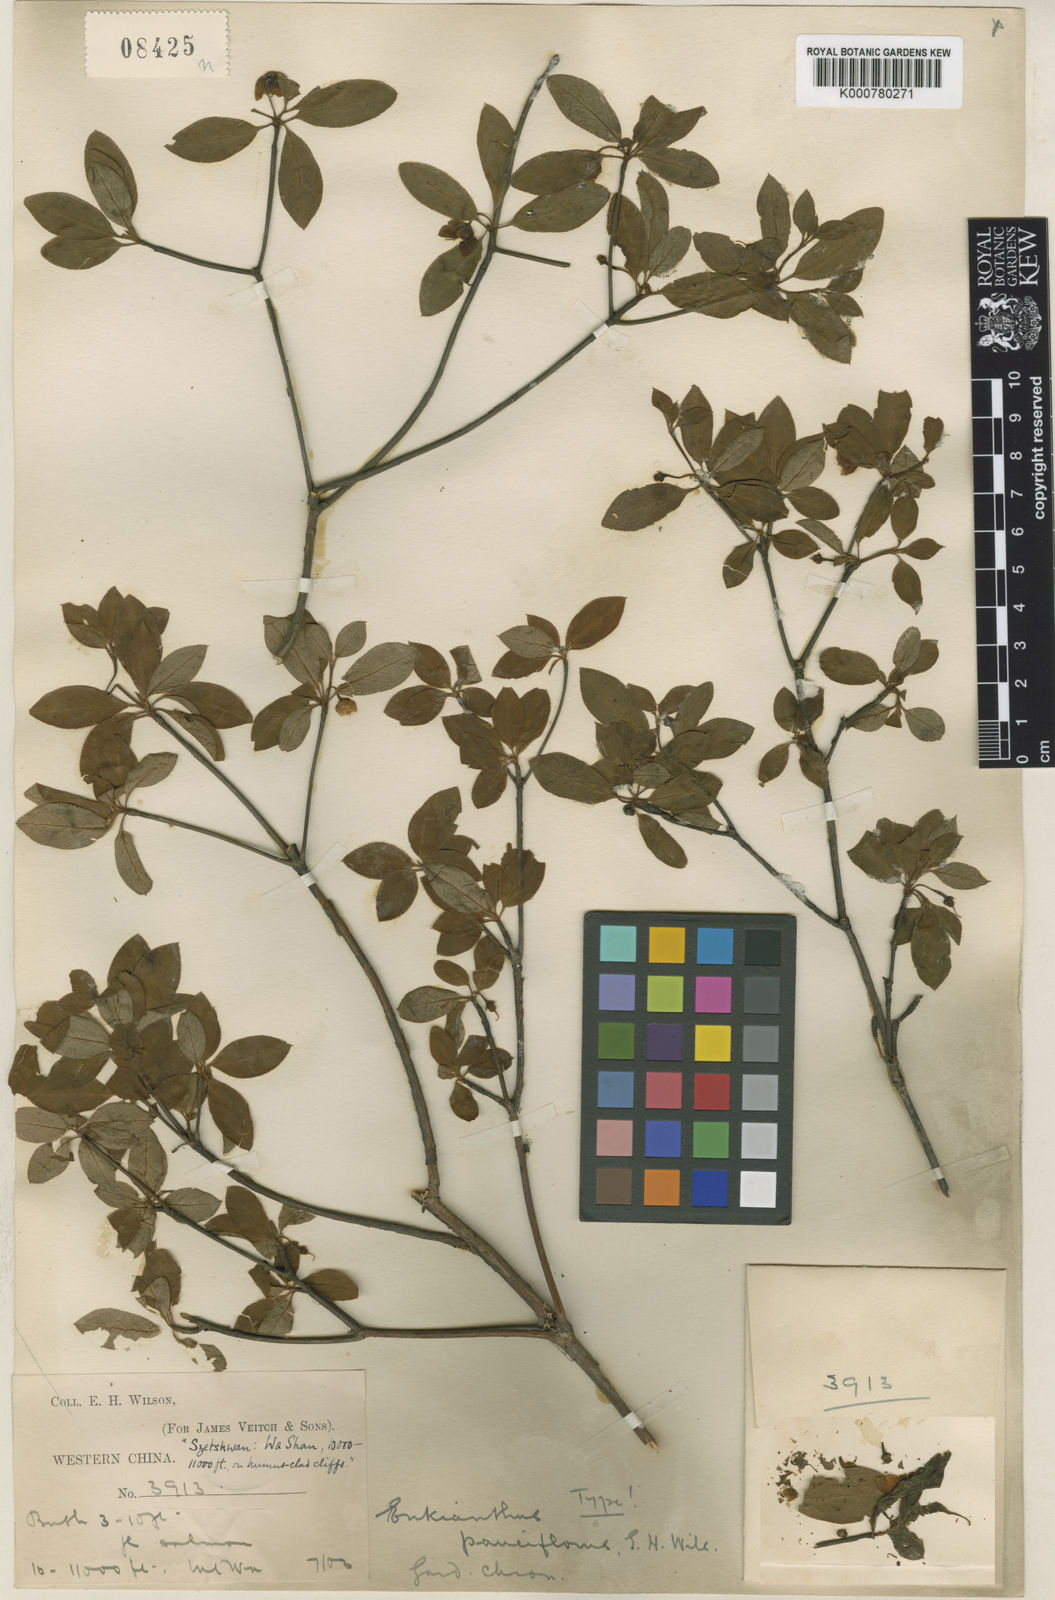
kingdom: Plantae
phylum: Tracheophyta
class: Magnoliopsida
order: Ericales
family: Ericaceae
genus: Enkianthus
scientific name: Enkianthus pauciflorus
